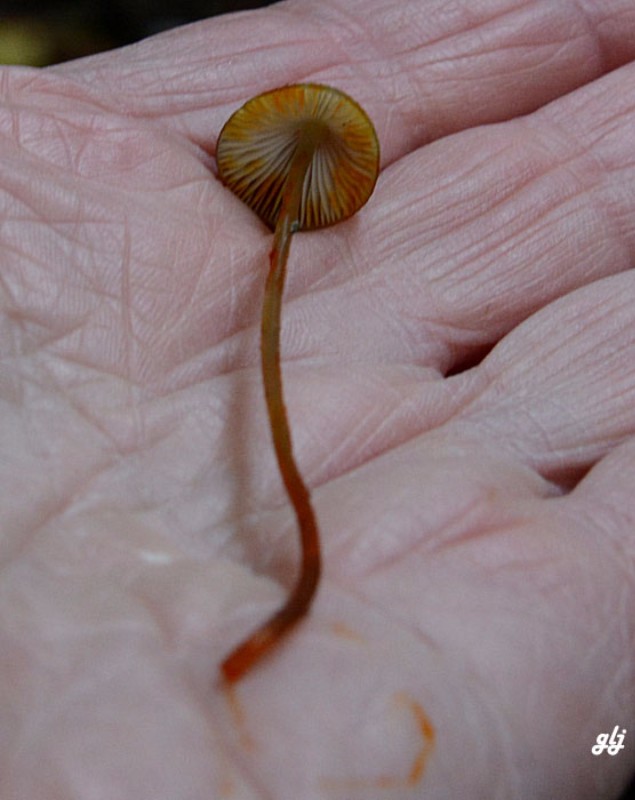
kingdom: Fungi
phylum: Basidiomycota
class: Agaricomycetes
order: Agaricales
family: Mycenaceae
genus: Mycena
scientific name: Mycena crocata
